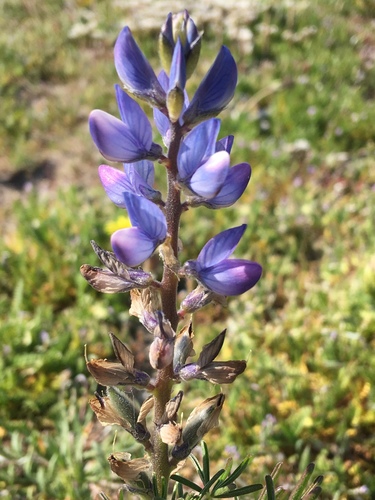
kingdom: Plantae
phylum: Tracheophyta
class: Magnoliopsida
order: Fabales
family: Fabaceae
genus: Lupinus
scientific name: Lupinus angustifolius
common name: Narrow-leaved lupin
